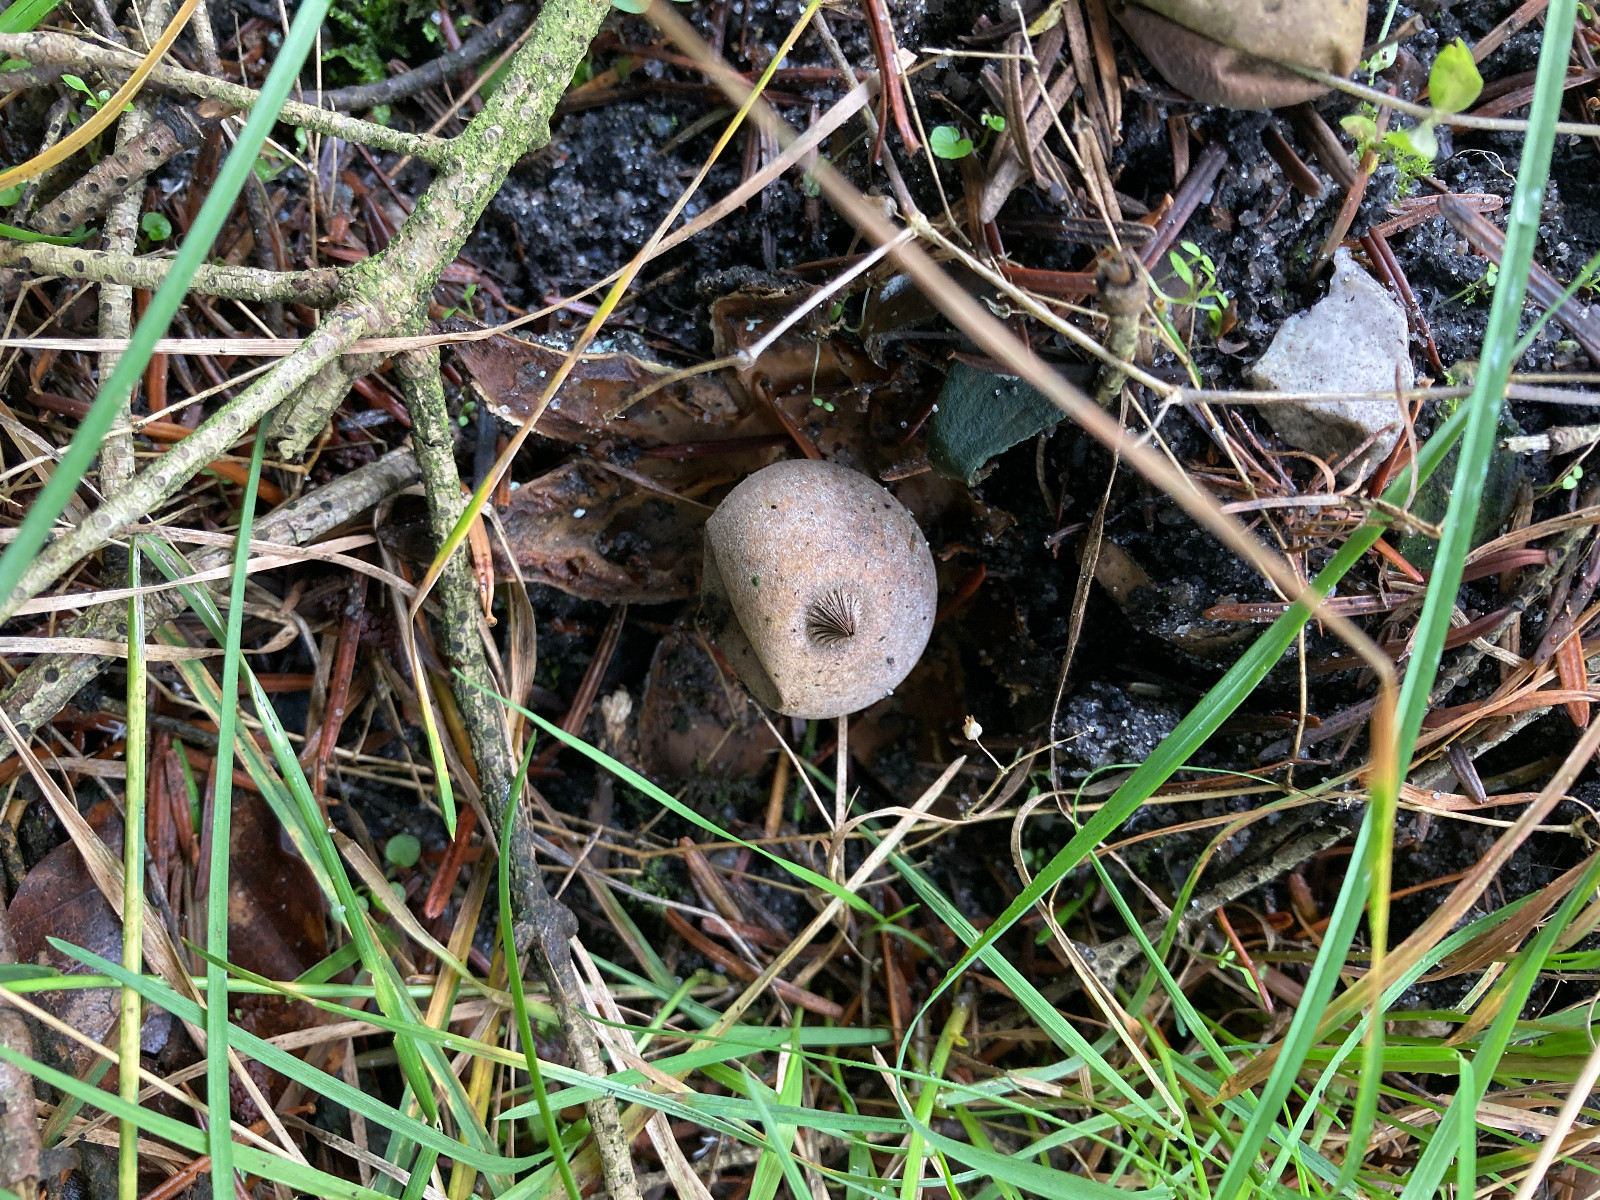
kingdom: Fungi
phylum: Basidiomycota
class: Agaricomycetes
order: Geastrales
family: Geastraceae
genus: Geastrum
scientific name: Geastrum pectinatum
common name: stilket stjernebold
